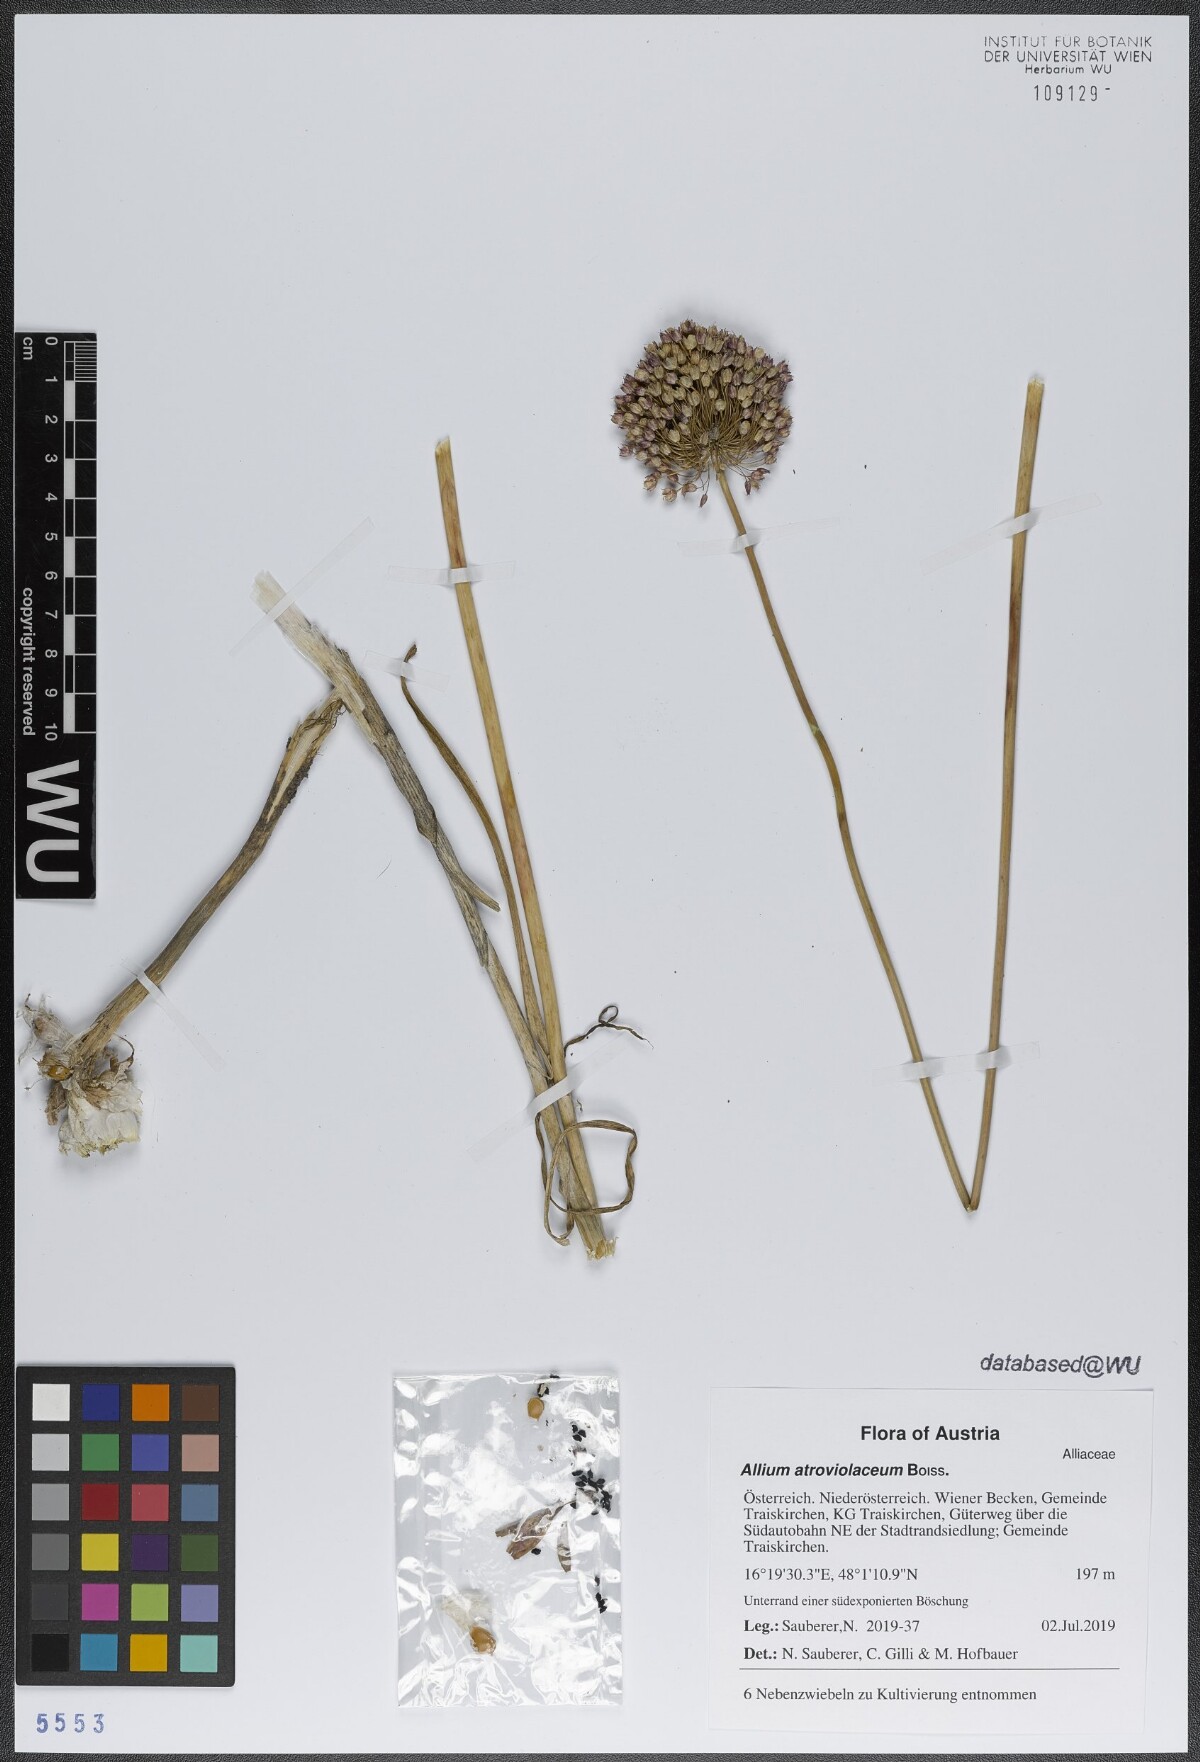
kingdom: Plantae
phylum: Tracheophyta
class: Liliopsida
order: Asparagales
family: Amaryllidaceae
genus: Allium
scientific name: Allium atroviolaceum
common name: Broadleaf wild leek
